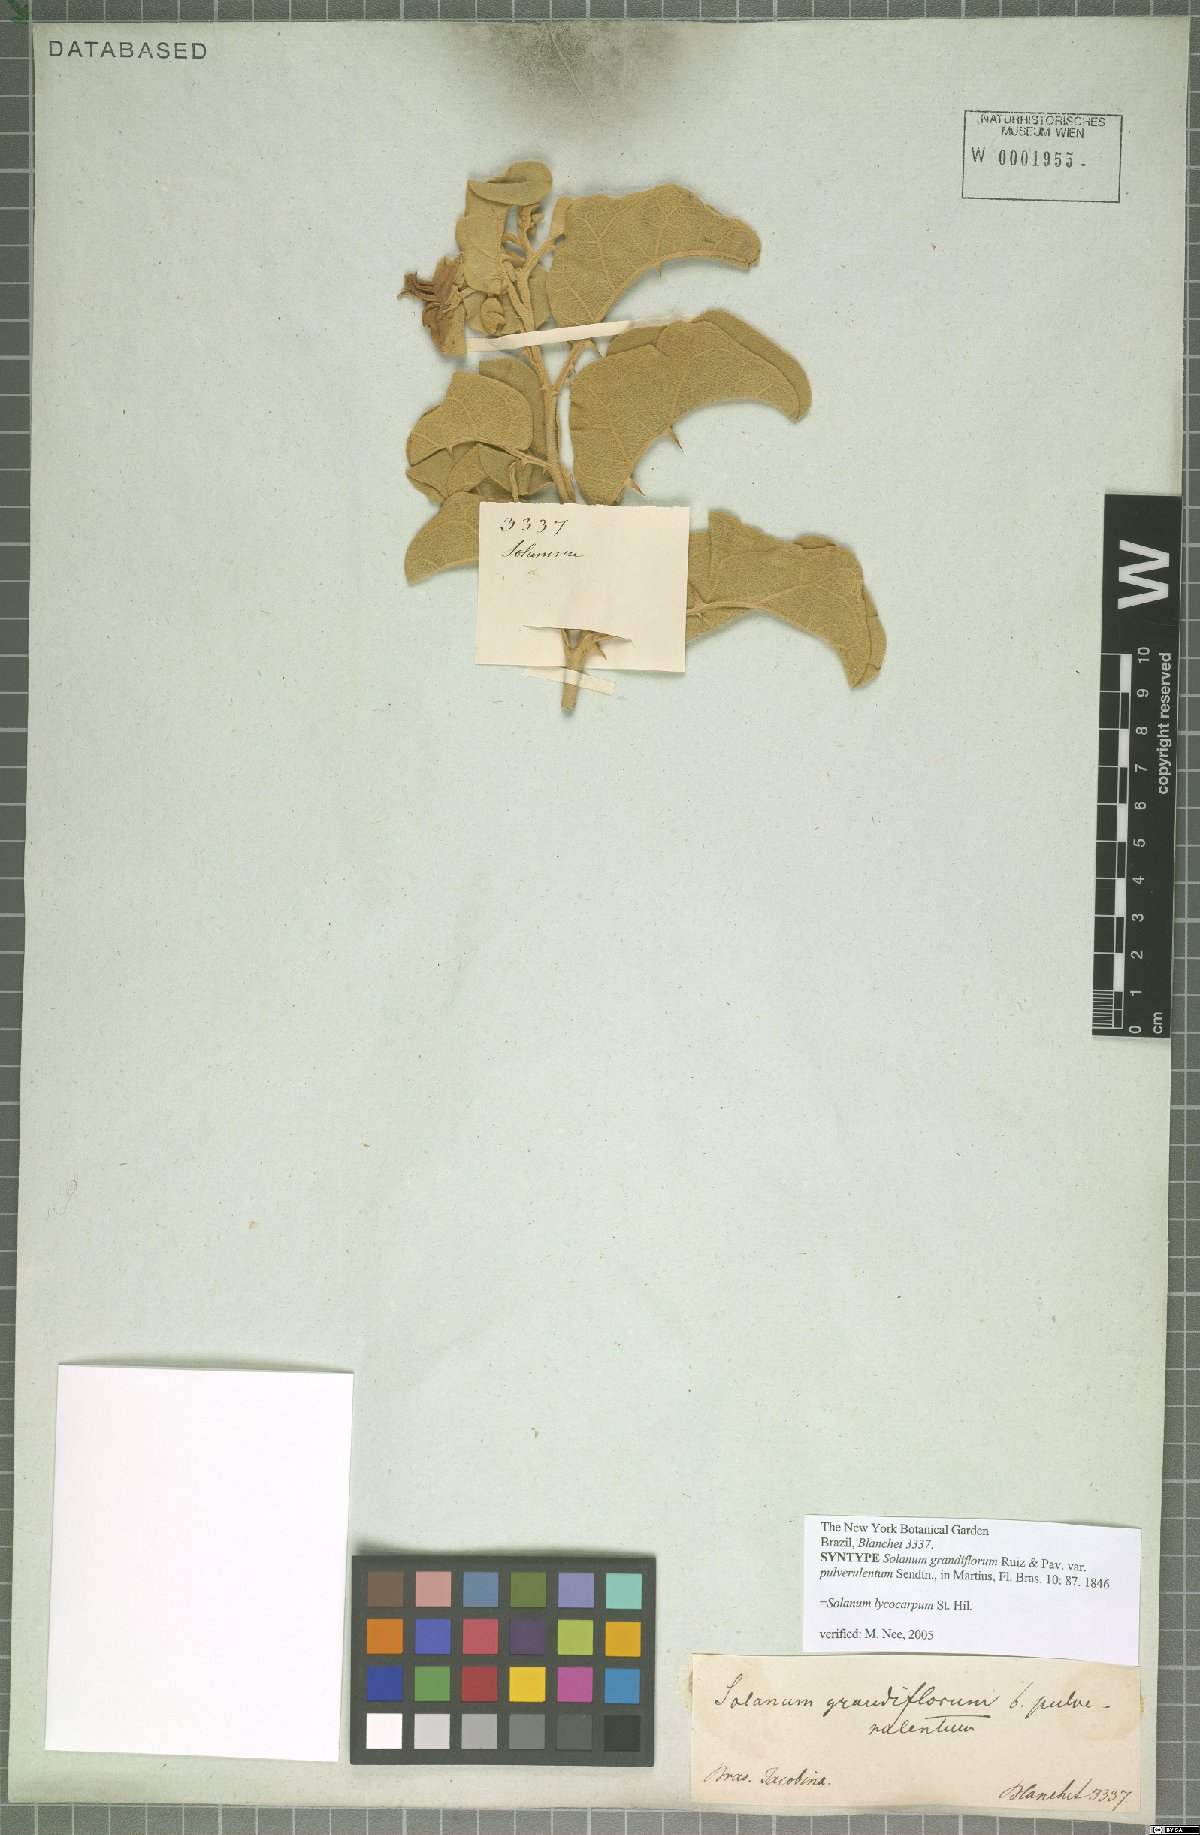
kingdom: Plantae
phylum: Tracheophyta
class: Magnoliopsida
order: Solanales
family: Solanaceae
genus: Solanum
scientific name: Solanum lycocarpum
